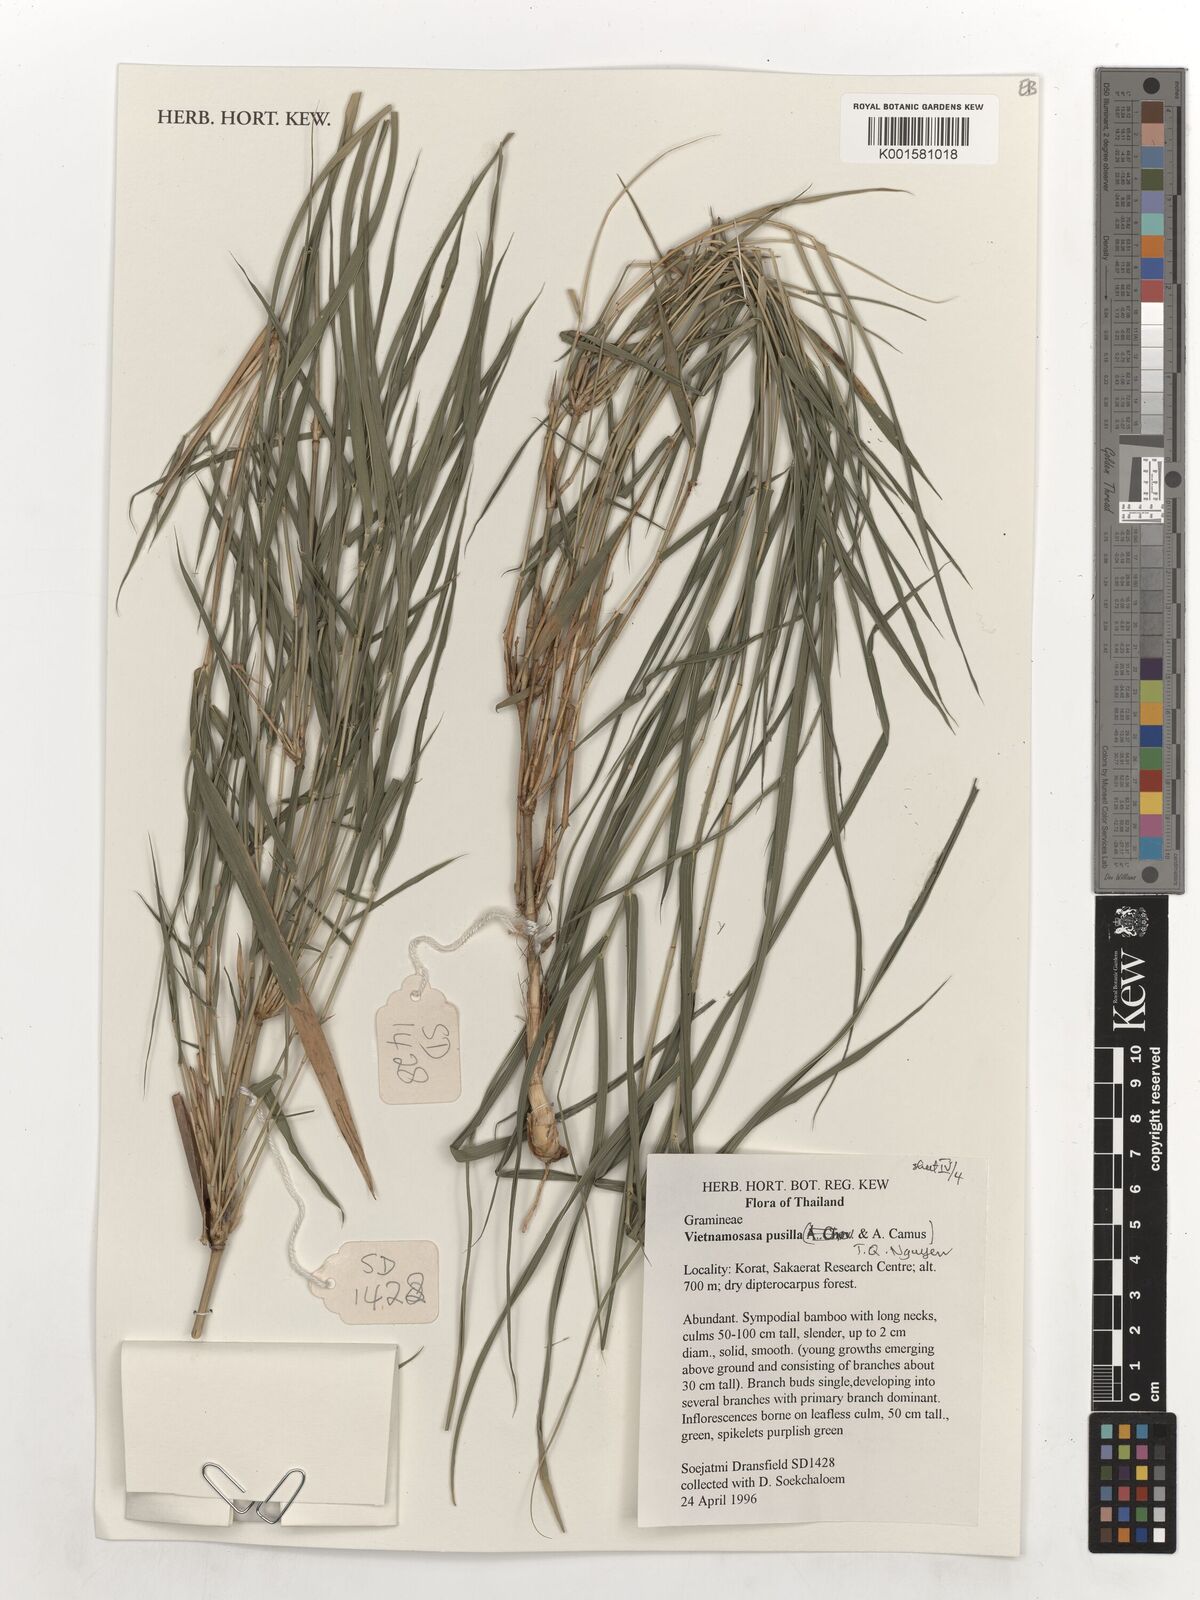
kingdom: Plantae
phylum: Tracheophyta
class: Liliopsida
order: Poales
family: Poaceae
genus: Vietnamosasa
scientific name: Vietnamosasa pusilla
